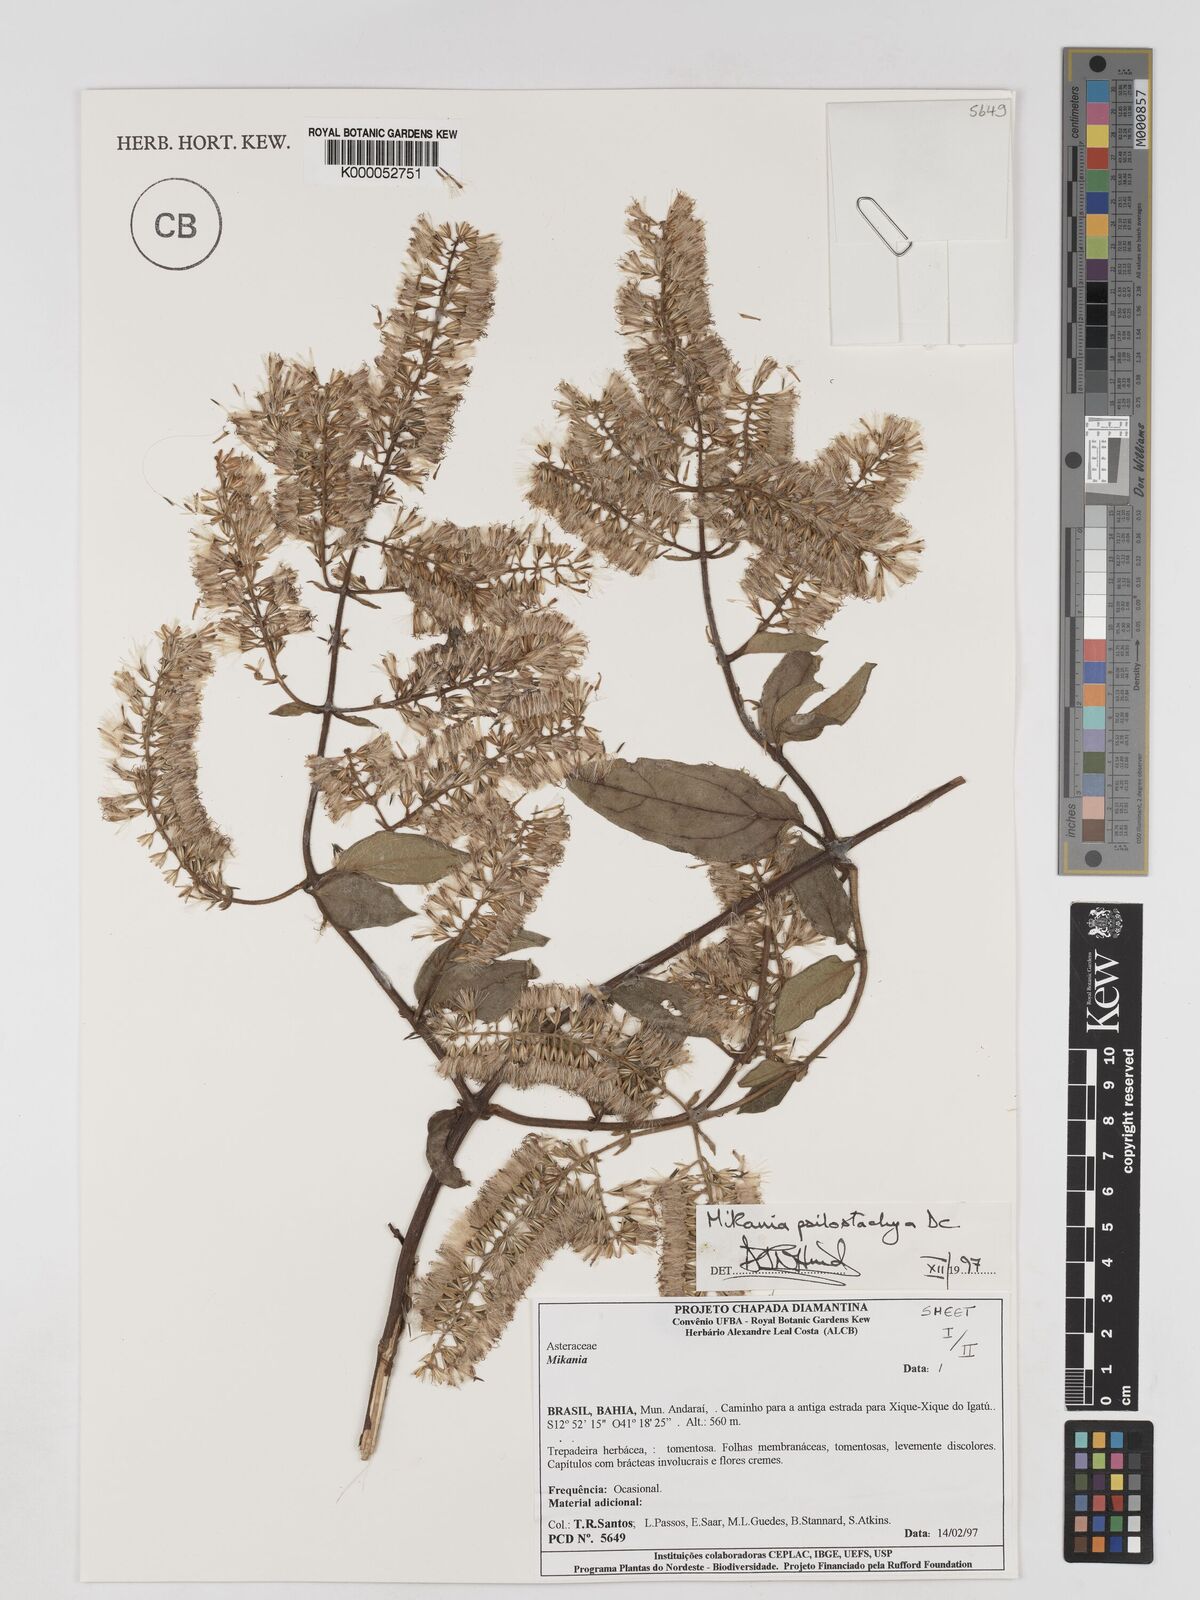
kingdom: Plantae
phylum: Tracheophyta
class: Magnoliopsida
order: Asterales
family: Asteraceae
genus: Mikania
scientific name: Mikania psilostachya
